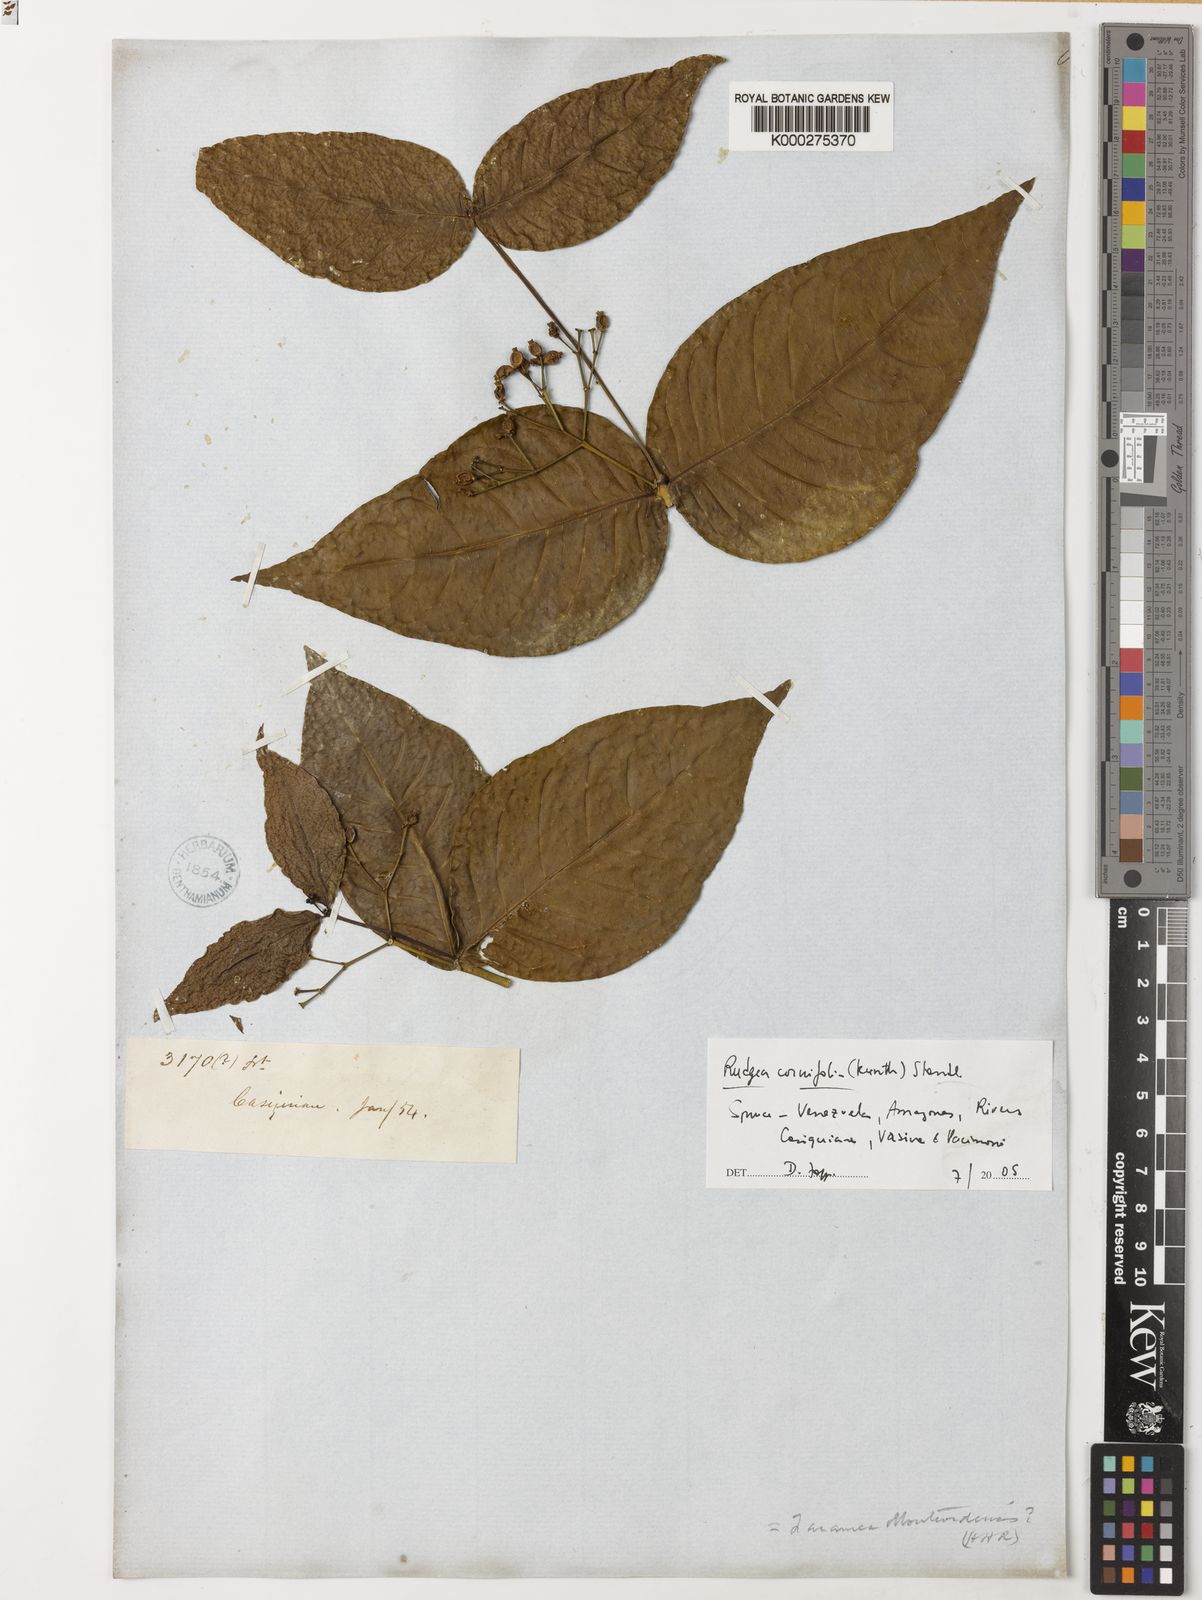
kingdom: Plantae
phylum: Tracheophyta
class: Magnoliopsida
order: Gentianales
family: Rubiaceae
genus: Rudgea
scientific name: Rudgea cornifolia
